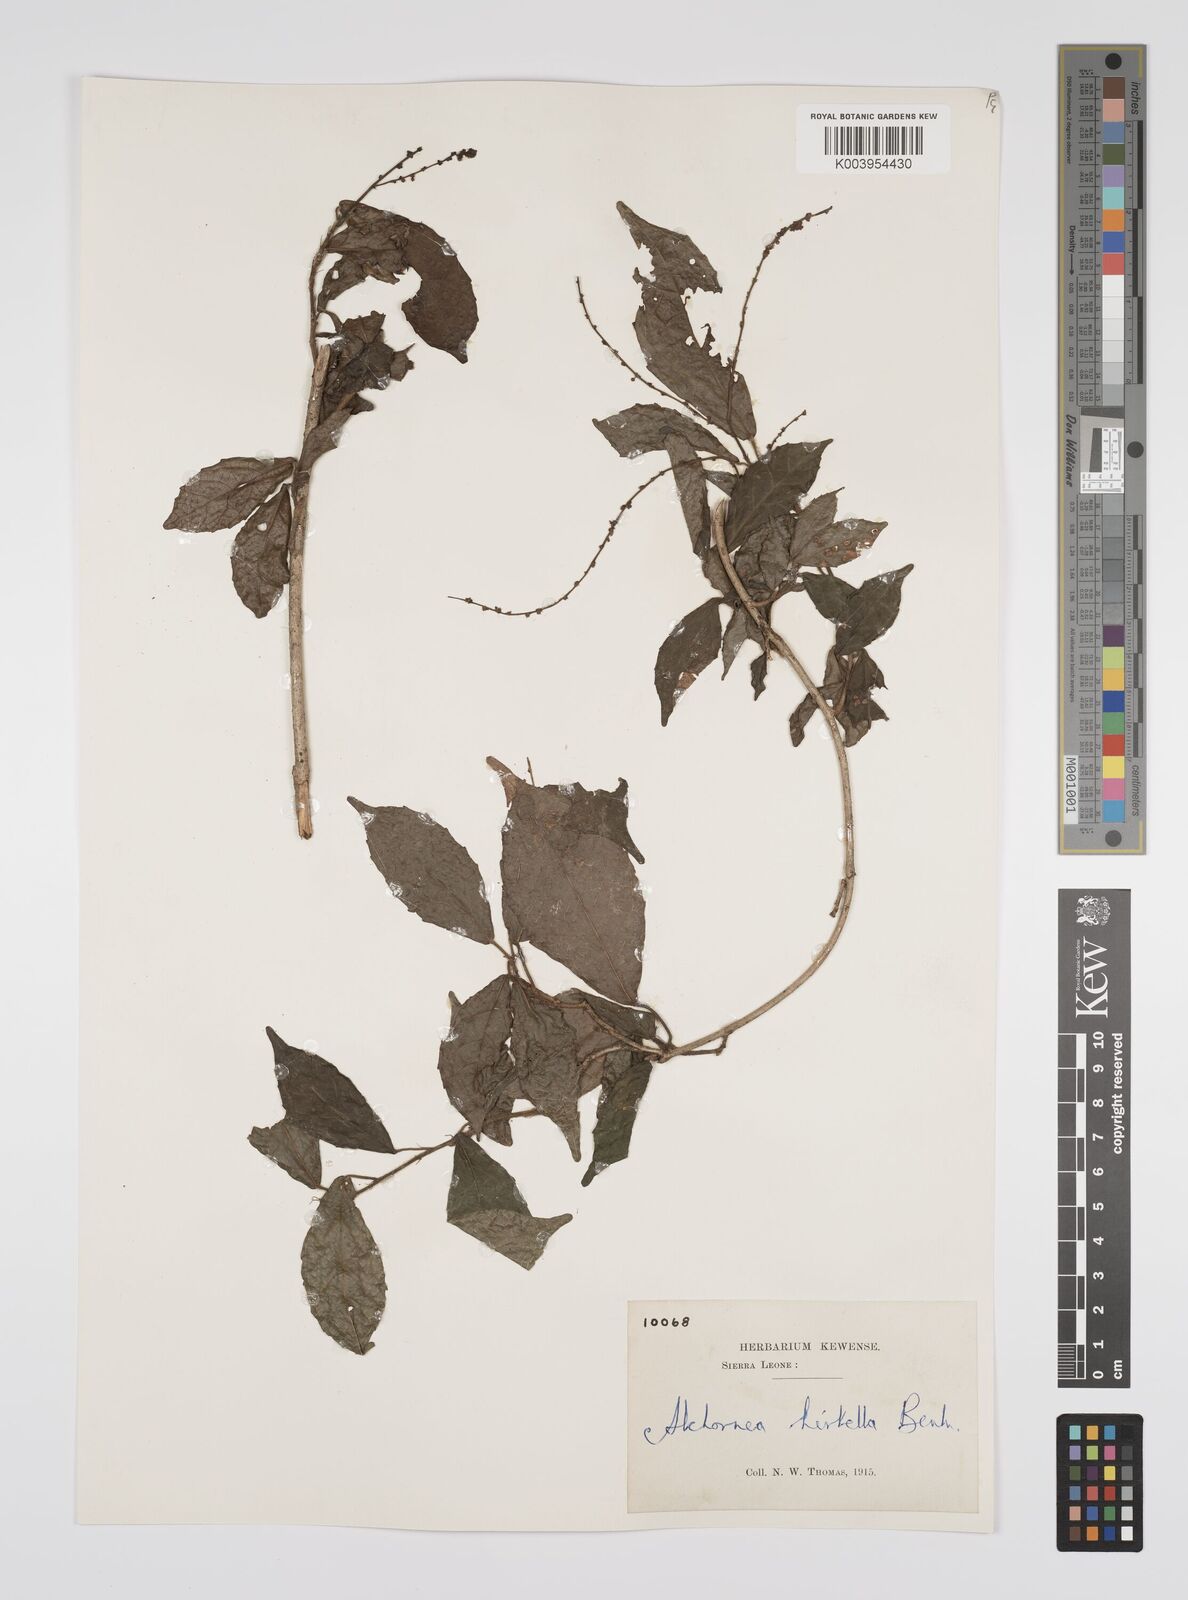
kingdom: Plantae
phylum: Tracheophyta
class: Magnoliopsida
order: Malpighiales
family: Euphorbiaceae
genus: Alchornea
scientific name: Alchornea hirtella
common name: Forest bead-string
